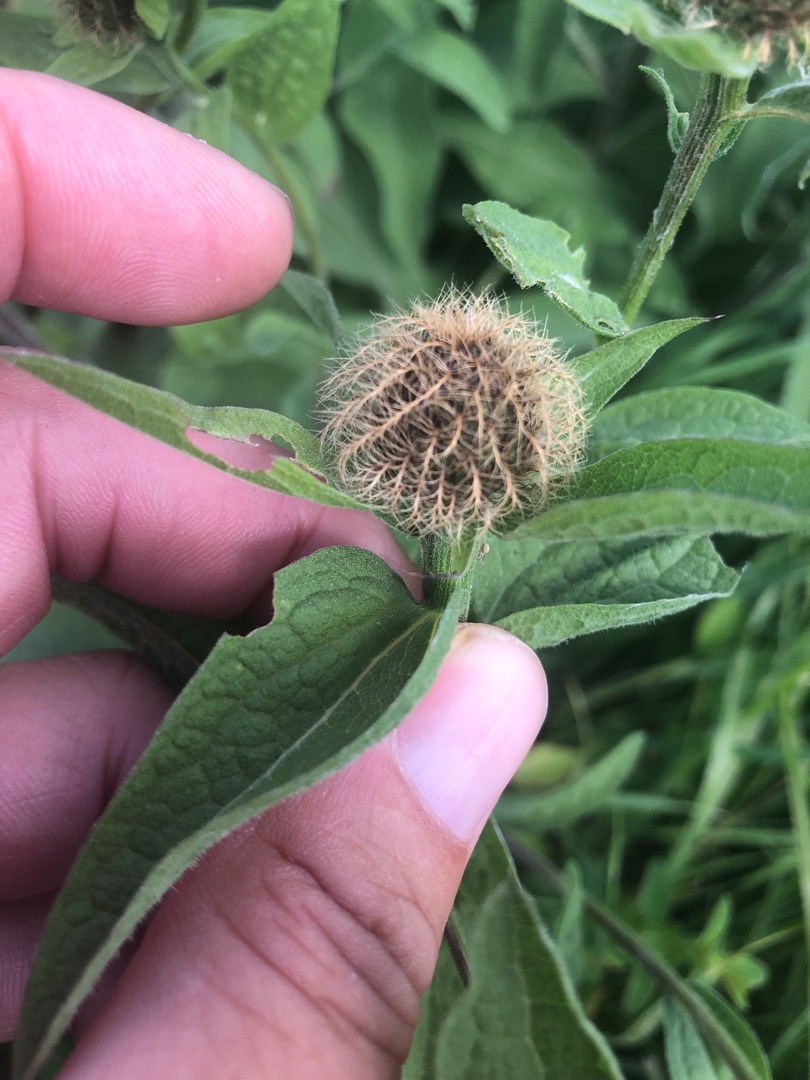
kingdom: Plantae
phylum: Tracheophyta
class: Magnoliopsida
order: Asterales
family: Asteraceae
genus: Centaurea
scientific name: Centaurea pseudophrygia
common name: Fjer-knopurt
